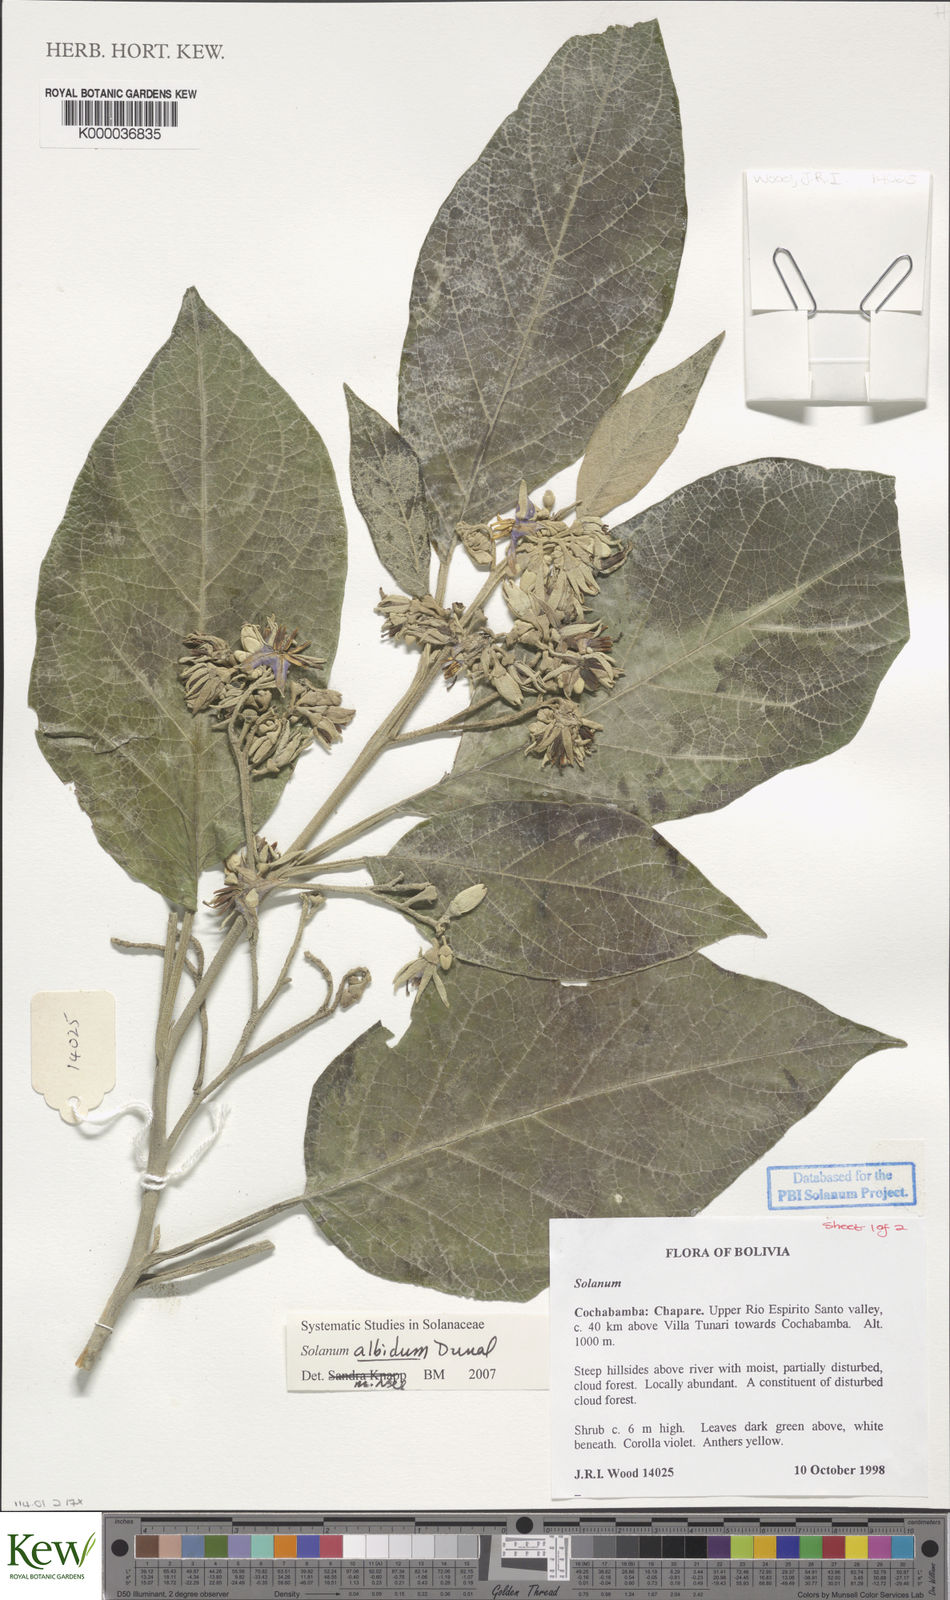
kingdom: Plantae
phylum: Tracheophyta
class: Magnoliopsida
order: Solanales
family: Solanaceae
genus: Solanum
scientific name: Solanum whalenii
